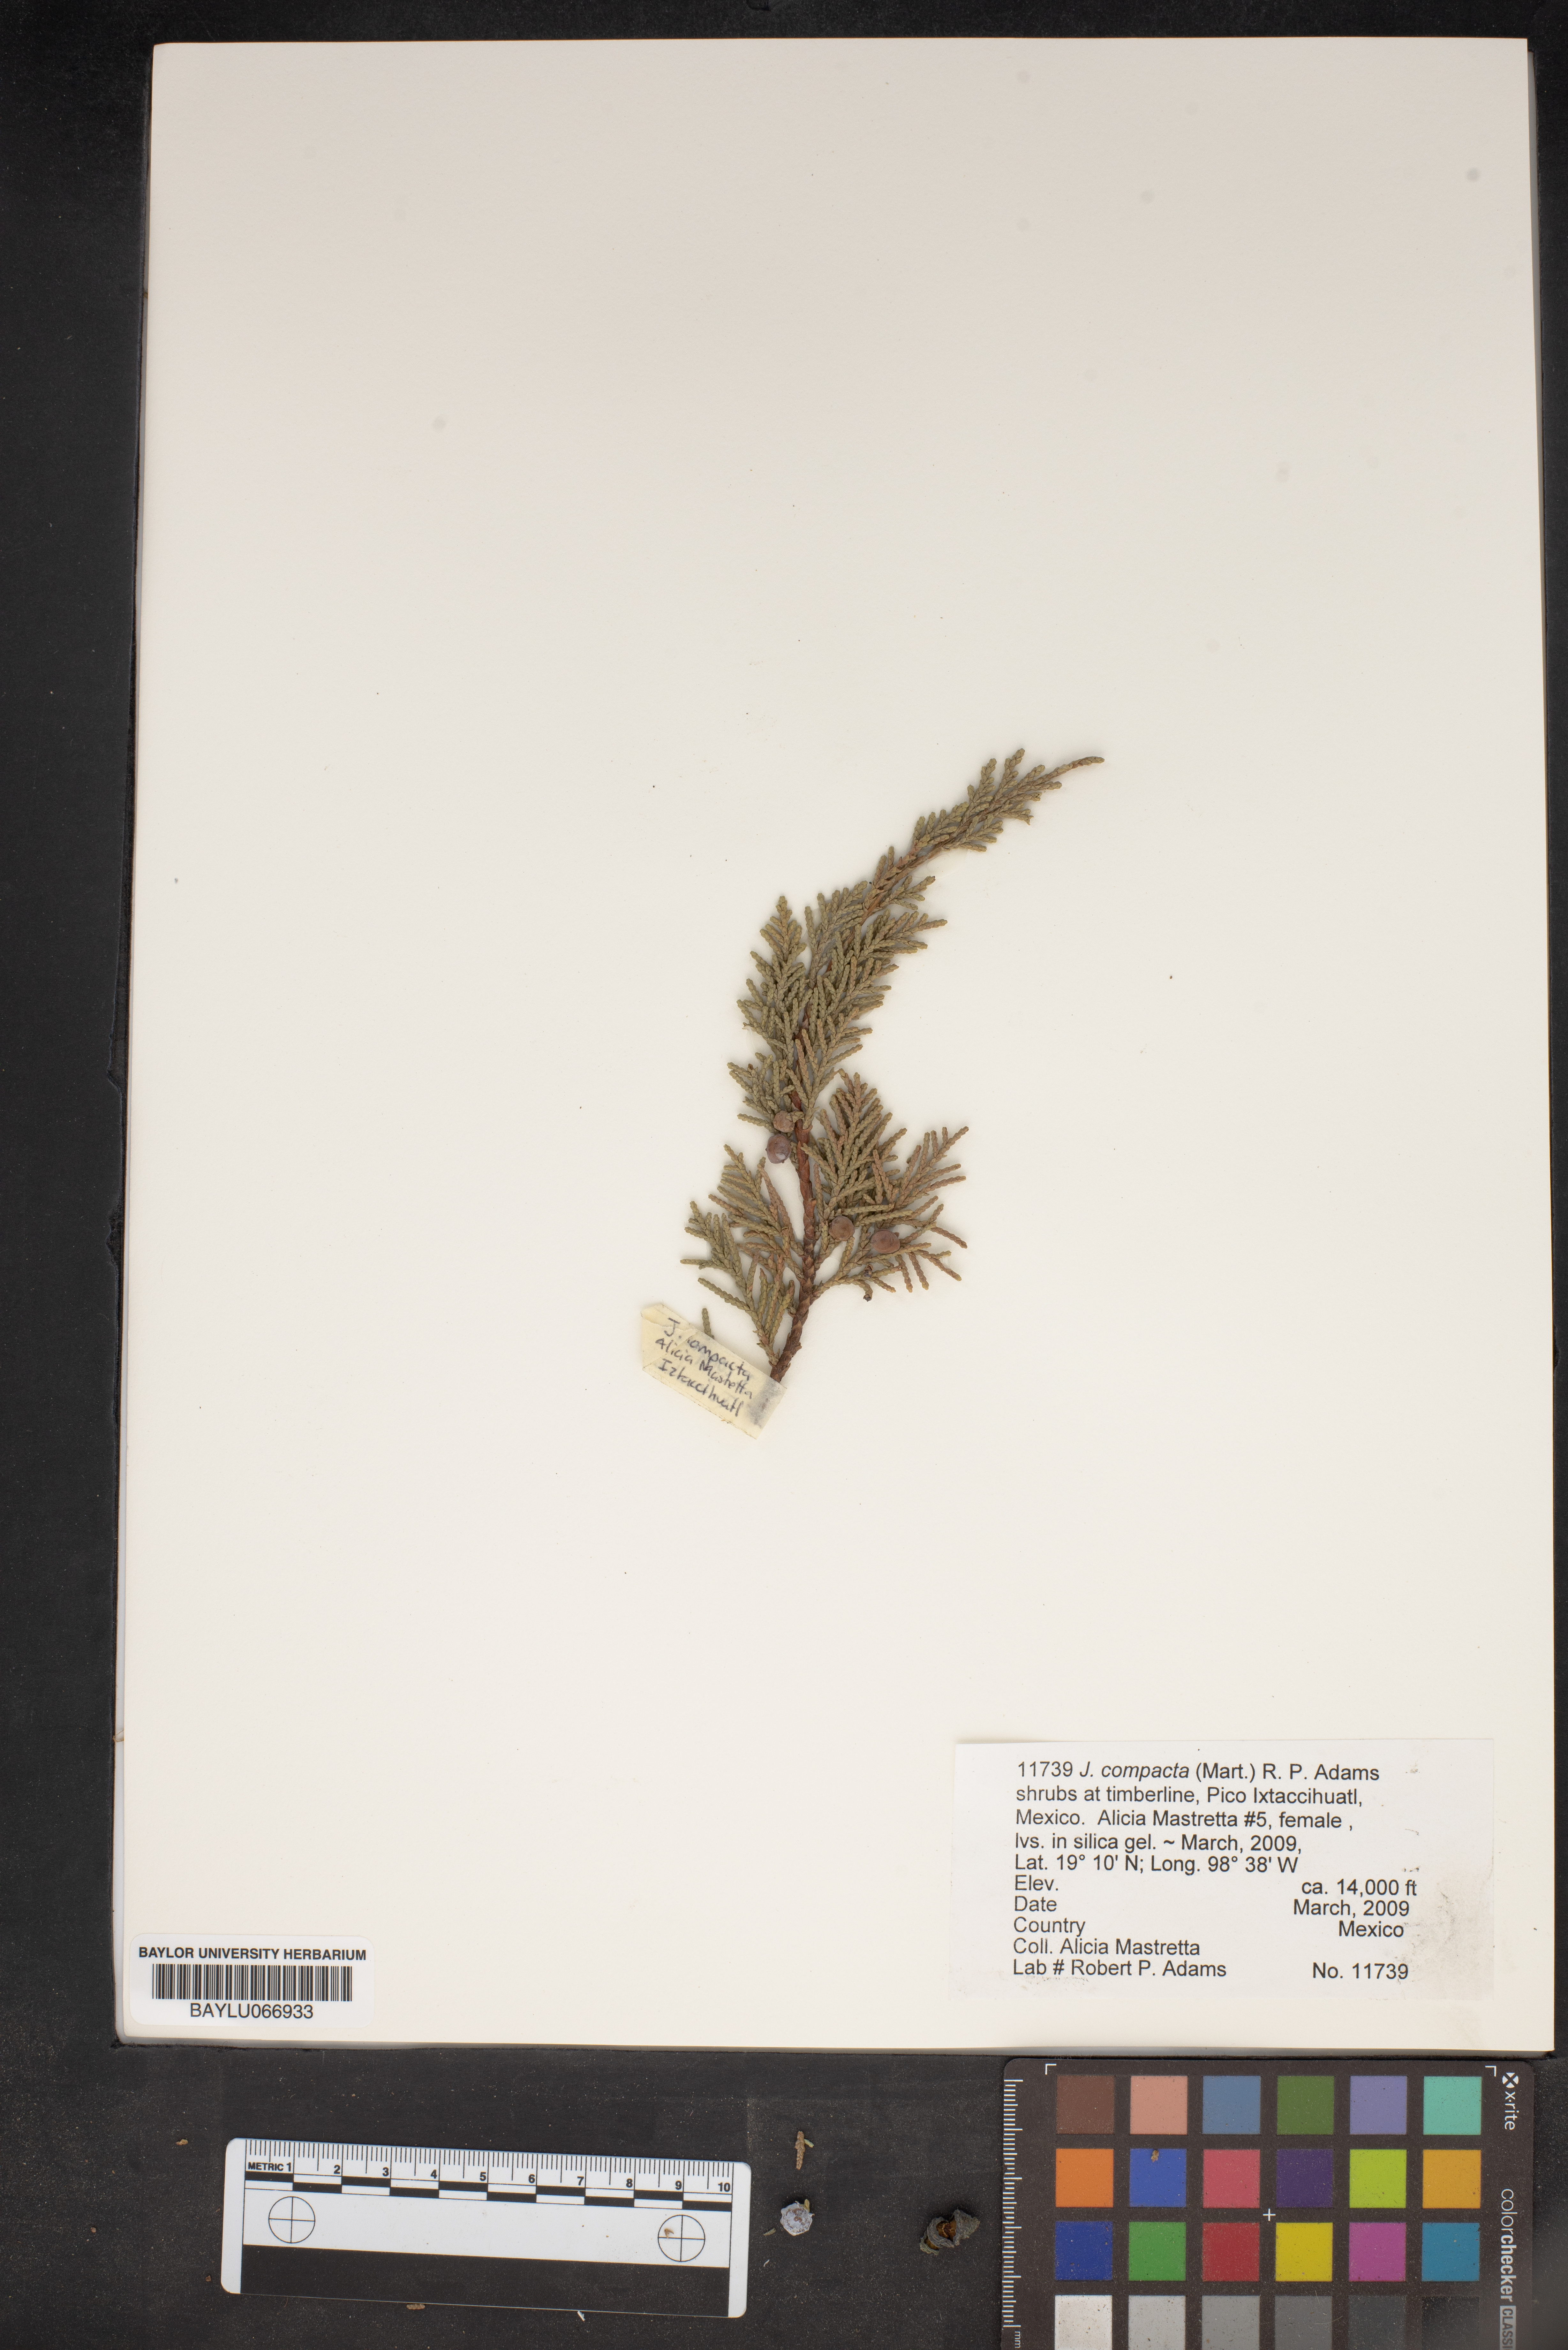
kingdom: Plantae
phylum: Tracheophyta
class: Pinopsida
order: Pinales
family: Cupressaceae
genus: Juniperus
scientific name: Juniperus monticola
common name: Mexican juniper
